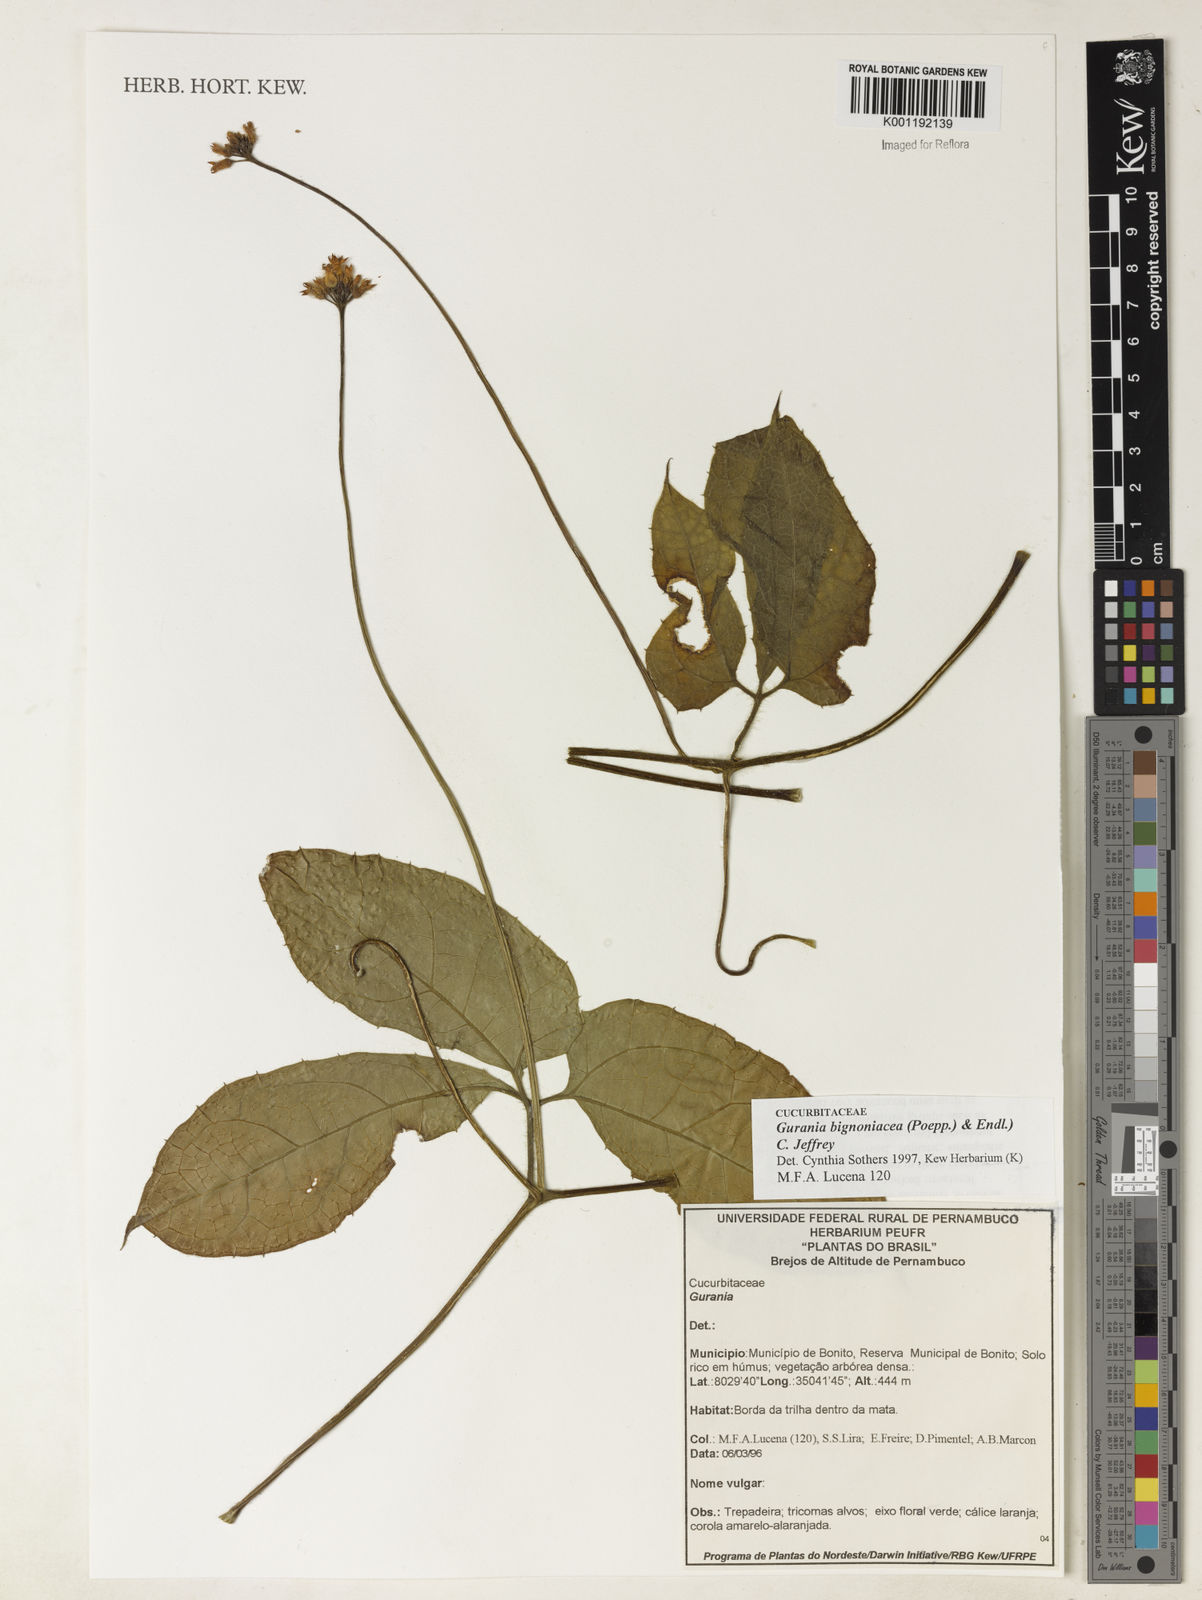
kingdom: Plantae
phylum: Tracheophyta
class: Magnoliopsida
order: Cucurbitales
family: Cucurbitaceae
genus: Gurania
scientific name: Gurania bignoniacea
